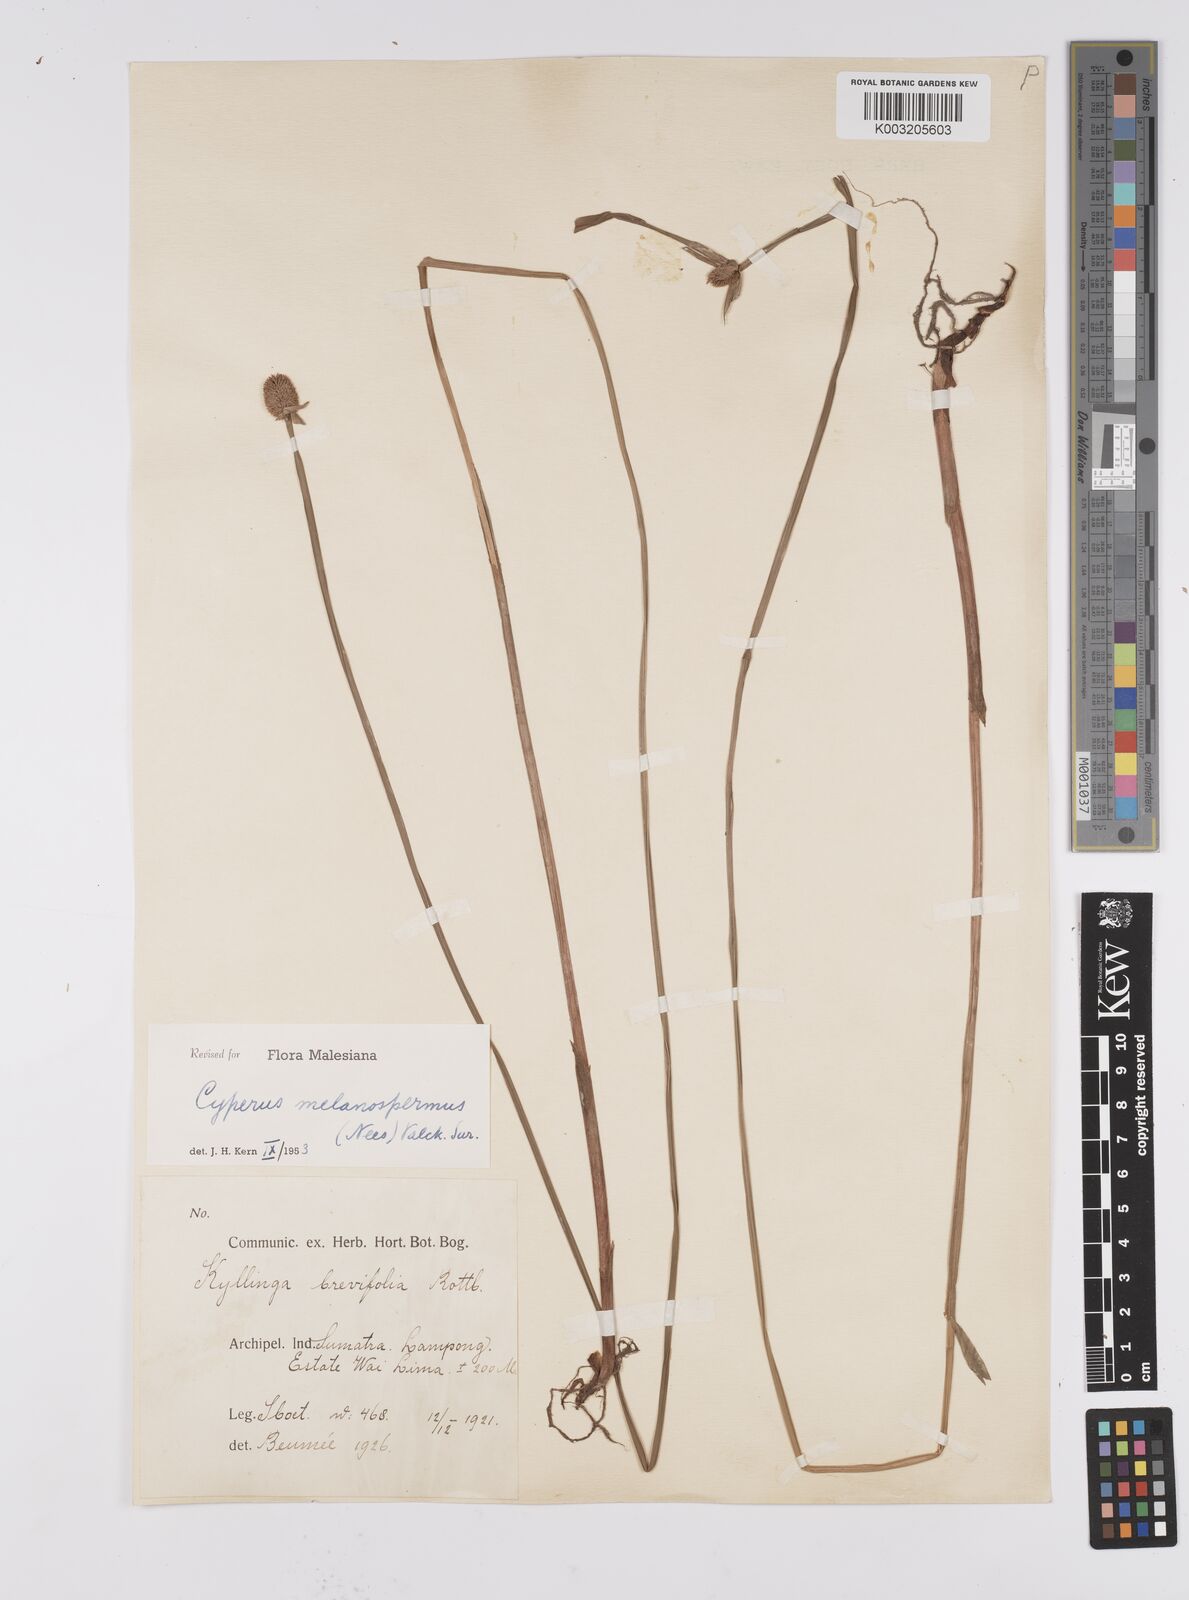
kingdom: Plantae
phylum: Tracheophyta
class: Liliopsida
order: Poales
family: Cyperaceae
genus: Cyperus
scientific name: Cyperus melanospermus
